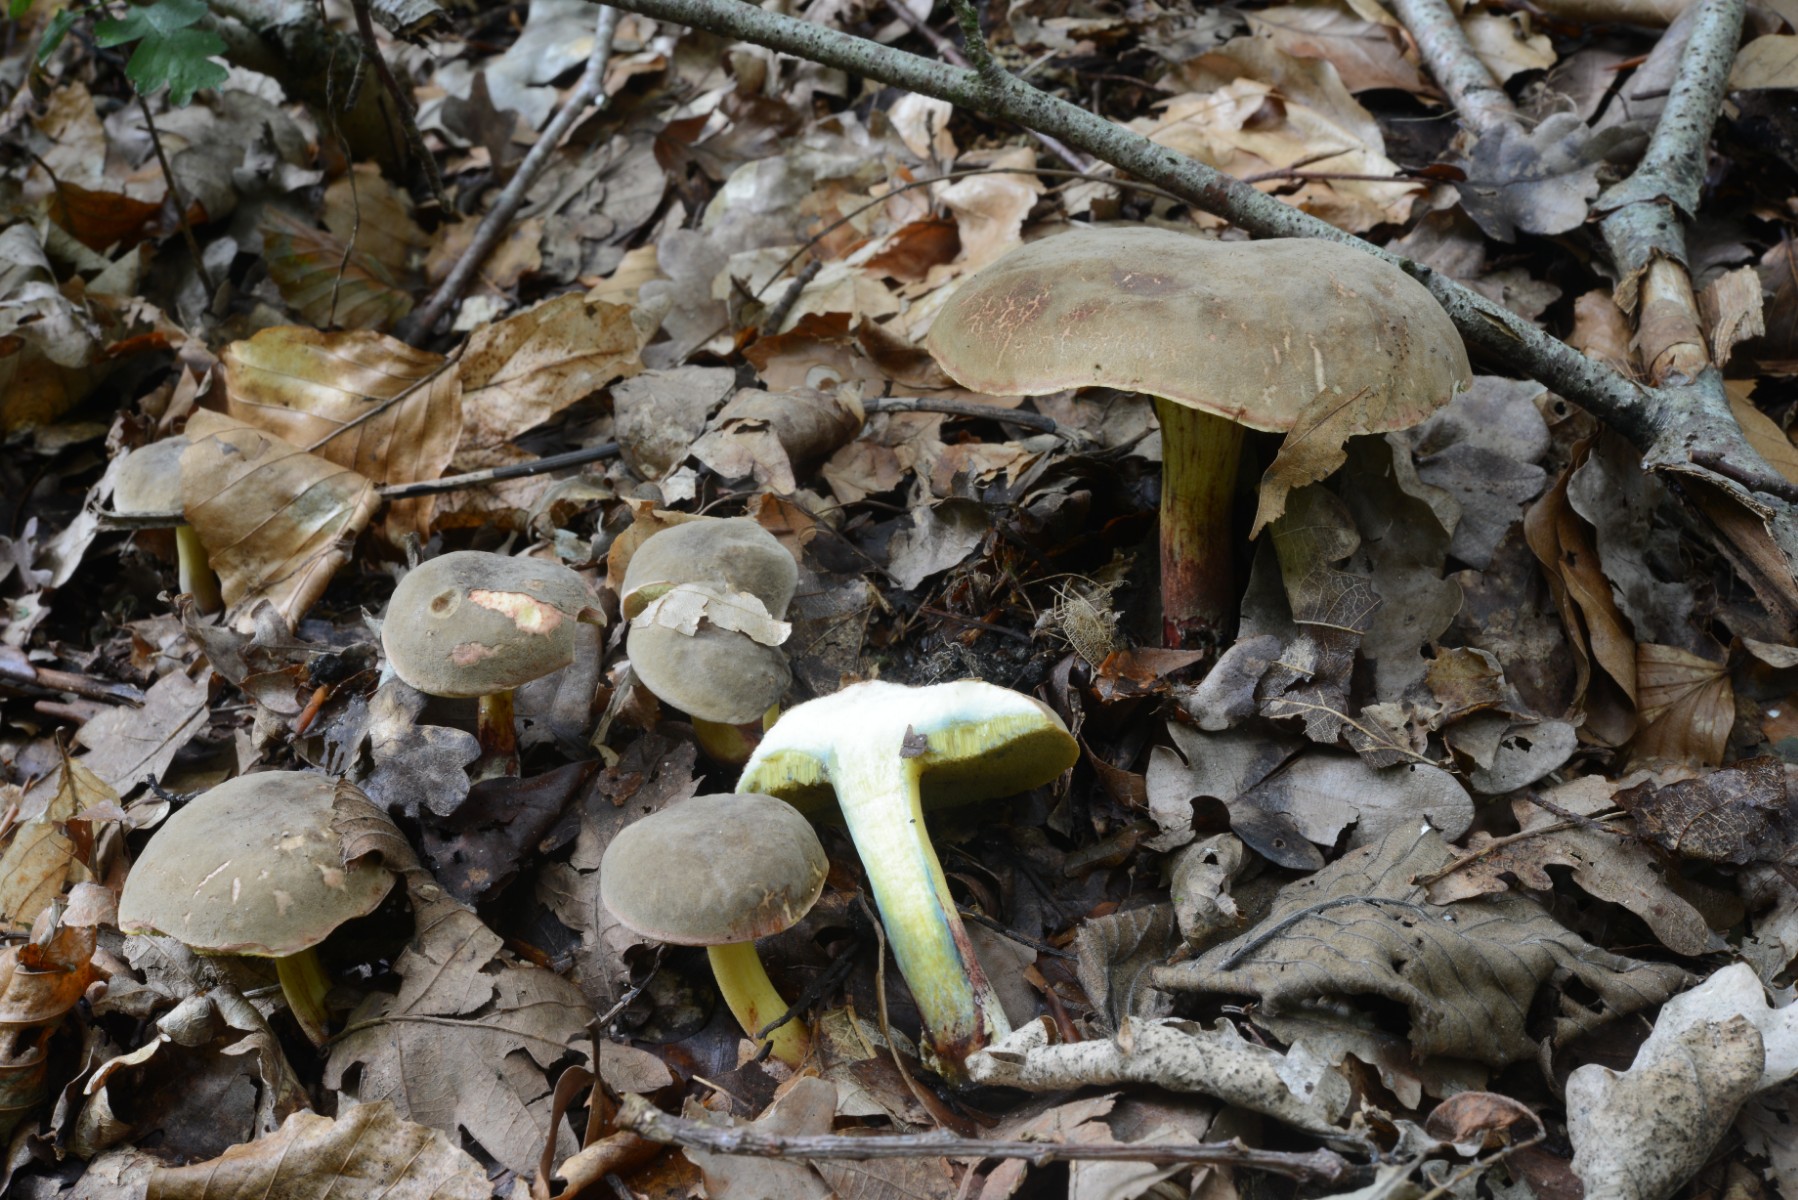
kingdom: Fungi
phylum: Basidiomycota
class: Agaricomycetes
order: Boletales
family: Boletaceae
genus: Xerocomellus
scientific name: Xerocomellus cisalpinus
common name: finsprukken rørhat
